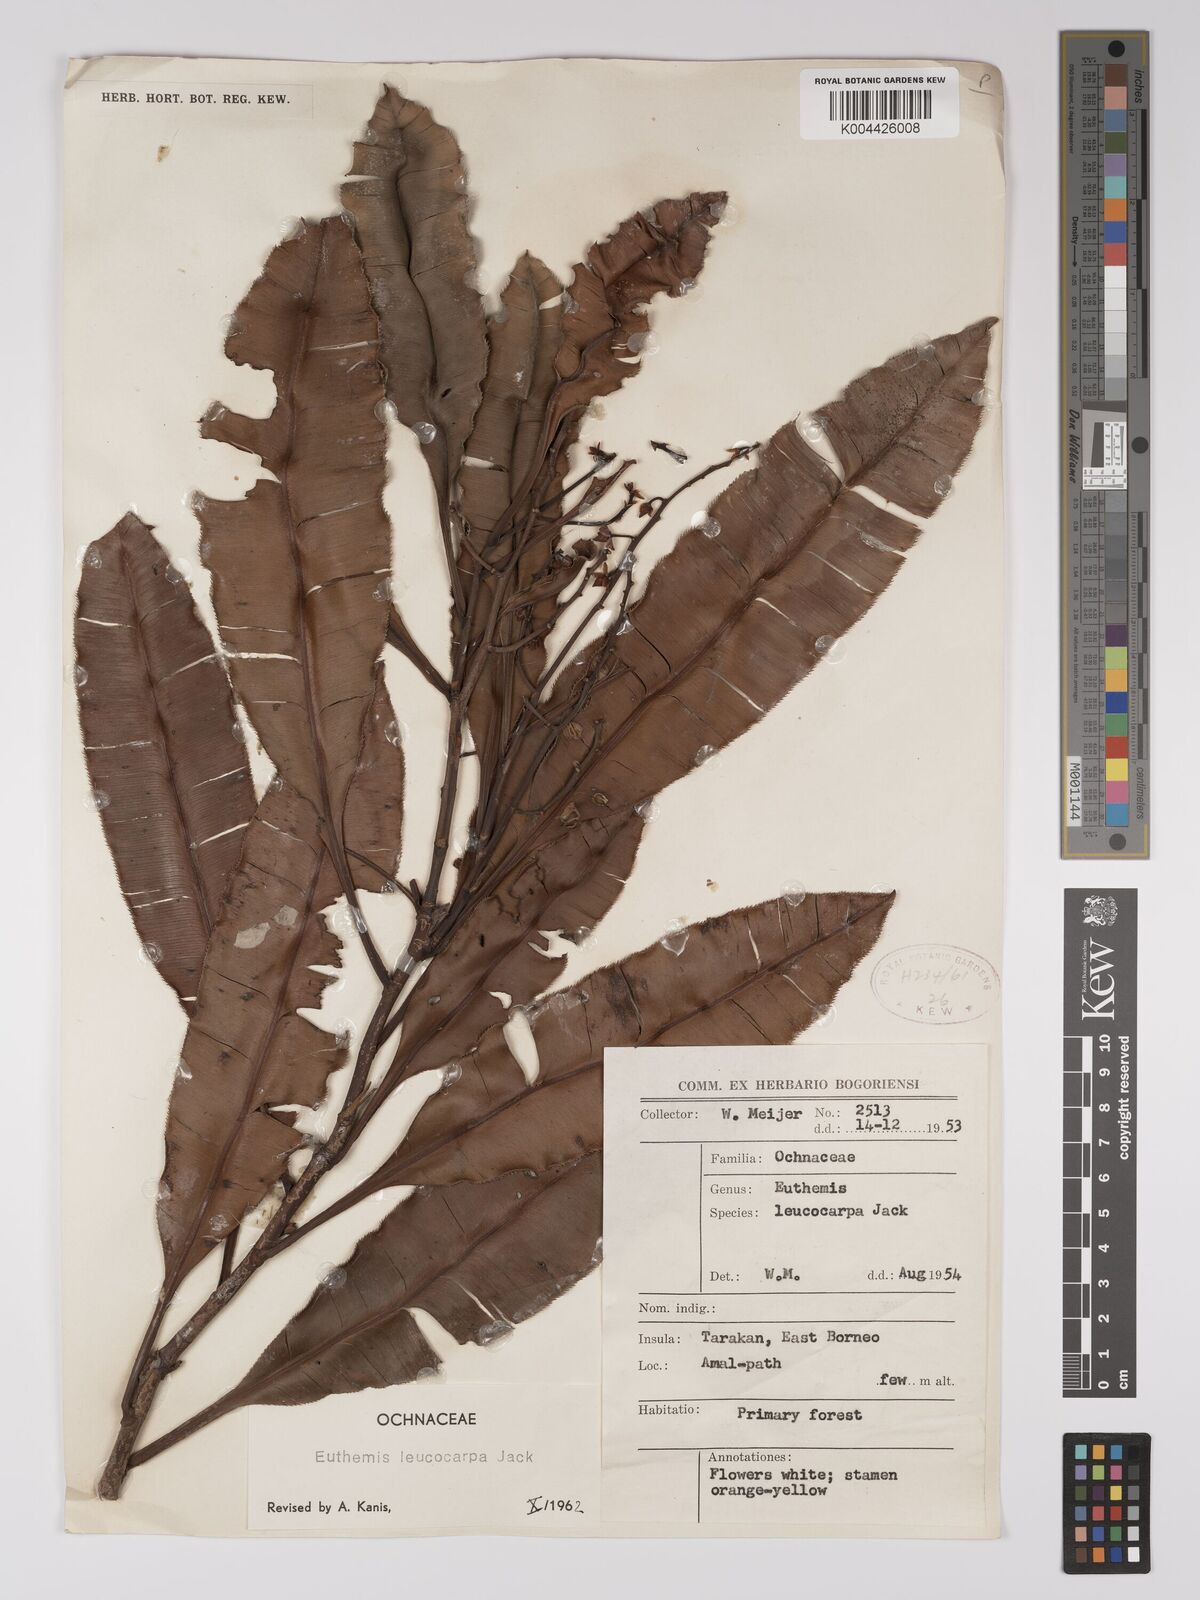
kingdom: Plantae
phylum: Tracheophyta
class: Magnoliopsida
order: Malpighiales
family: Ochnaceae
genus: Euthemis
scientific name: Euthemis leucocarpa
